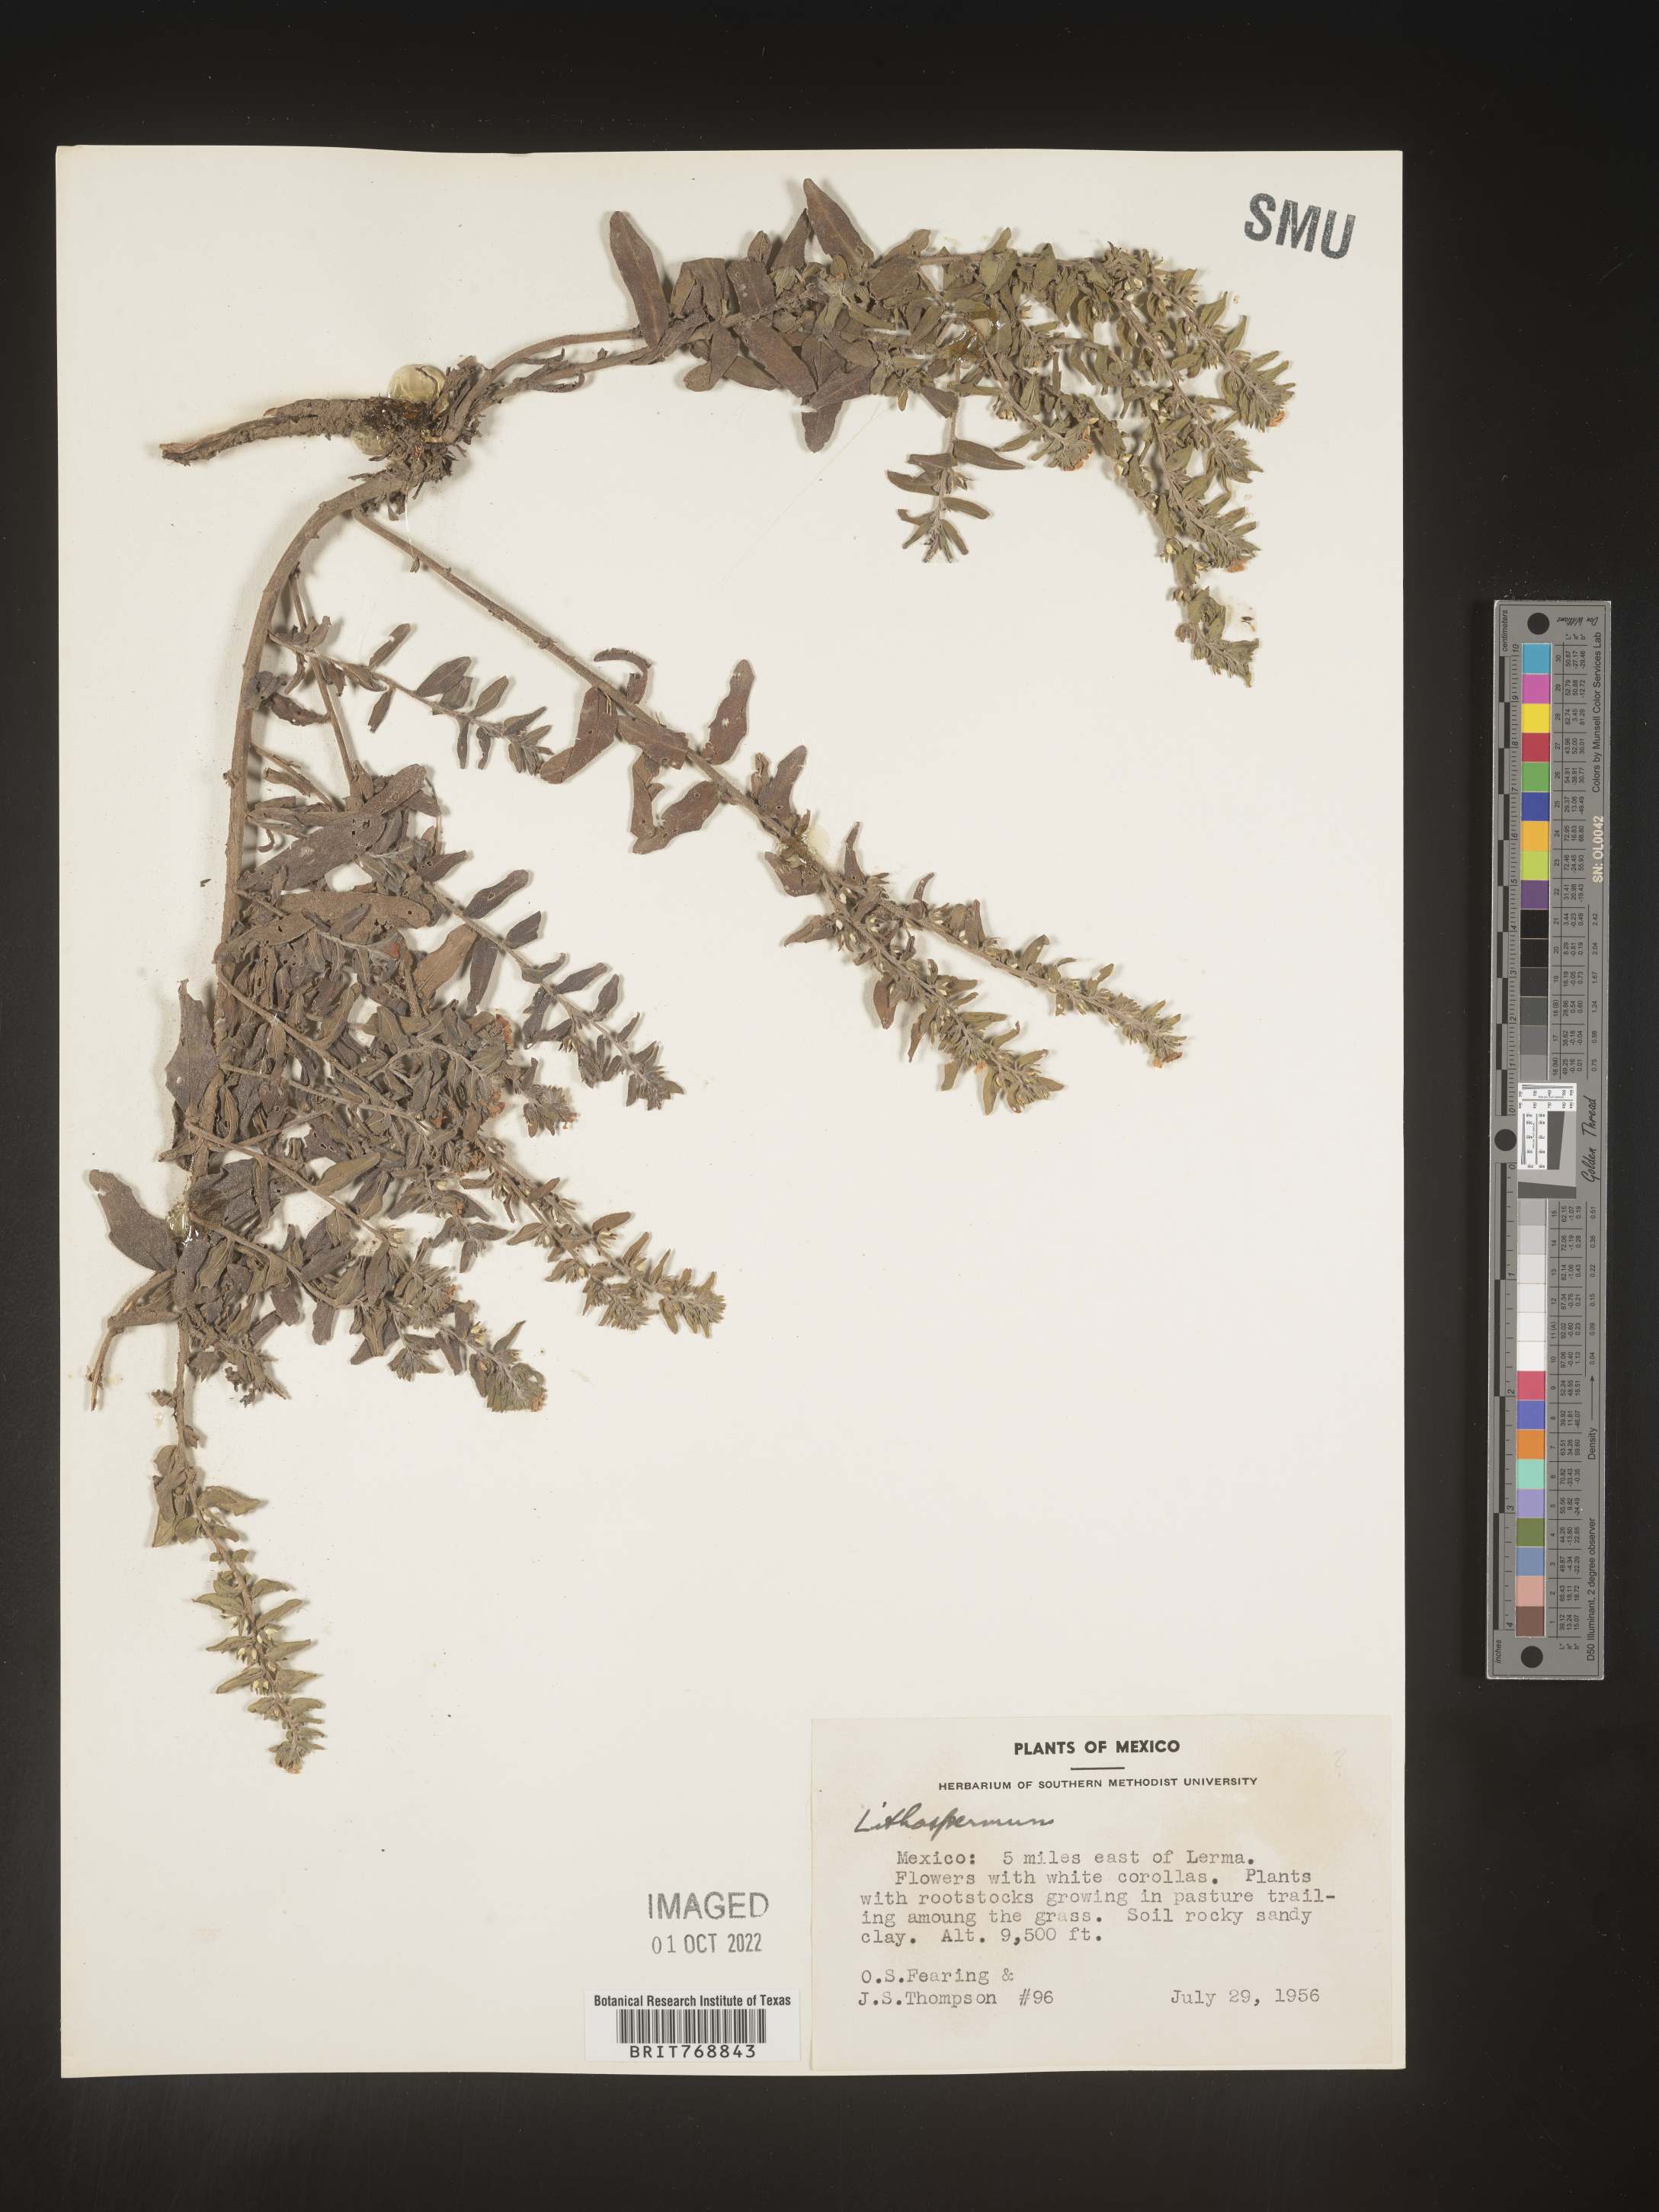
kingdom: Plantae
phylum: Tracheophyta
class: Magnoliopsida
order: Boraginales
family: Boraginaceae
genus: Lithospermum
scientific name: Lithospermum
